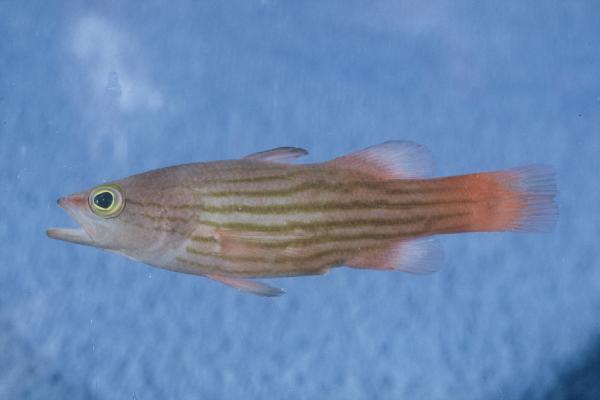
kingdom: Animalia
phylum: Chordata
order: Perciformes
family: Serranidae
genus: Liopropoma
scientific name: Liopropoma susumi
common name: Striped basslet
